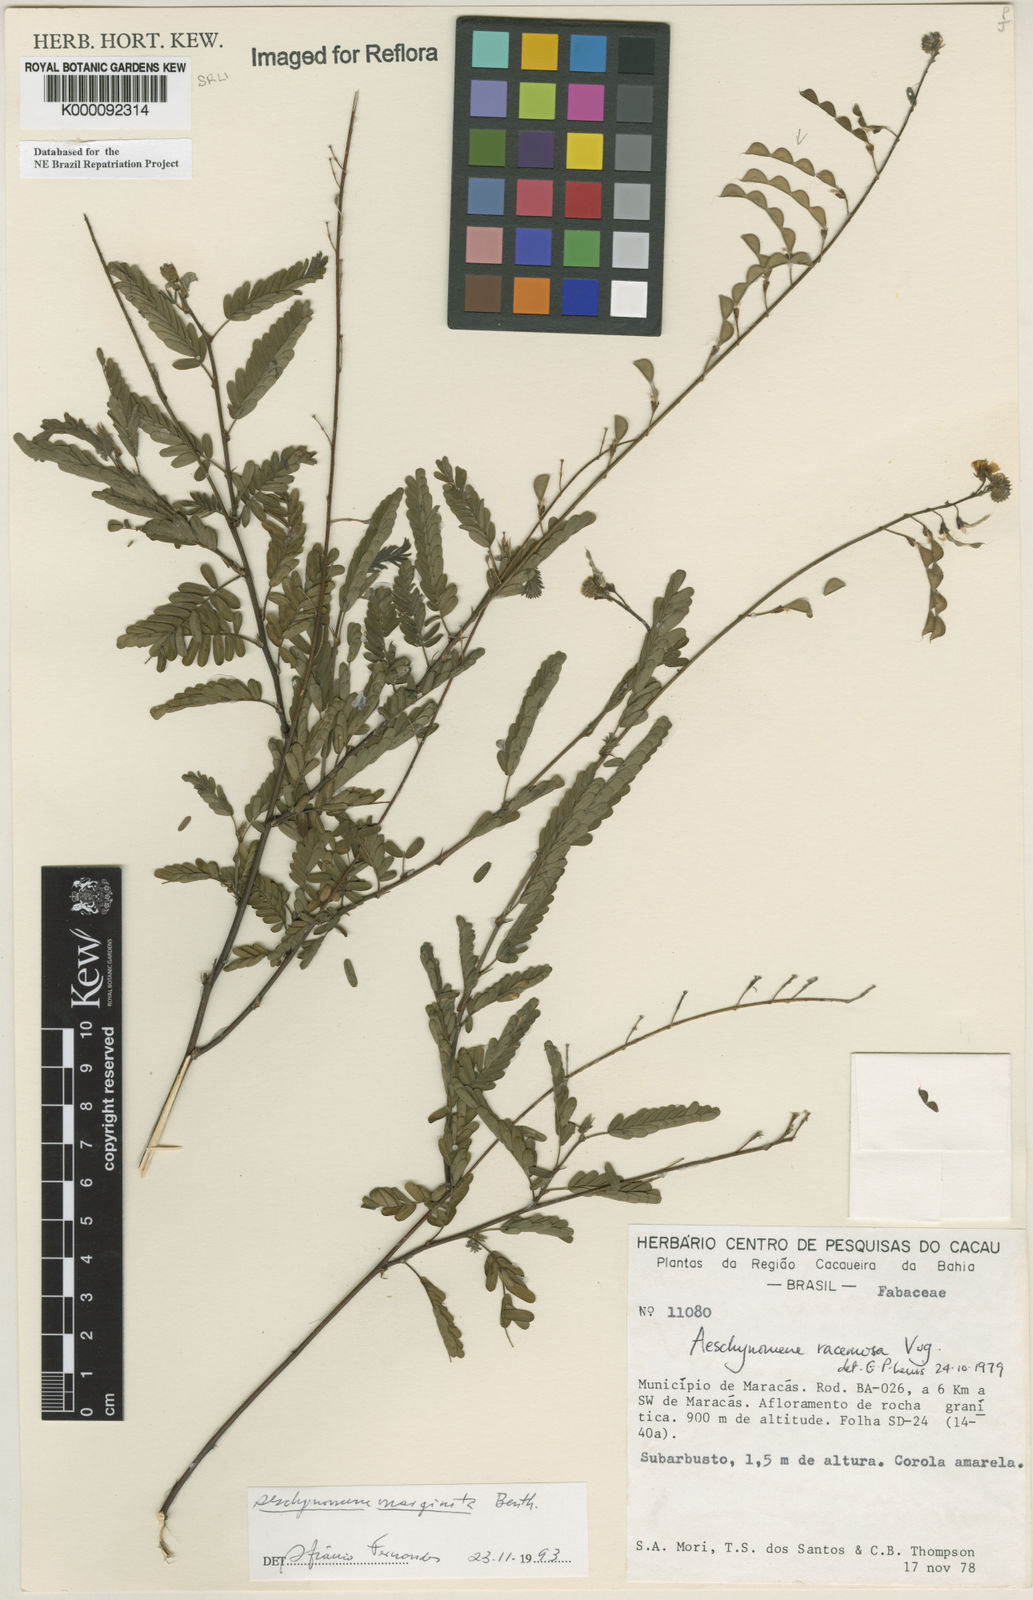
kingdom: Plantae
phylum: Tracheophyta
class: Magnoliopsida
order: Fabales
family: Fabaceae
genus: Ctenodon
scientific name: Ctenodon marginatus
